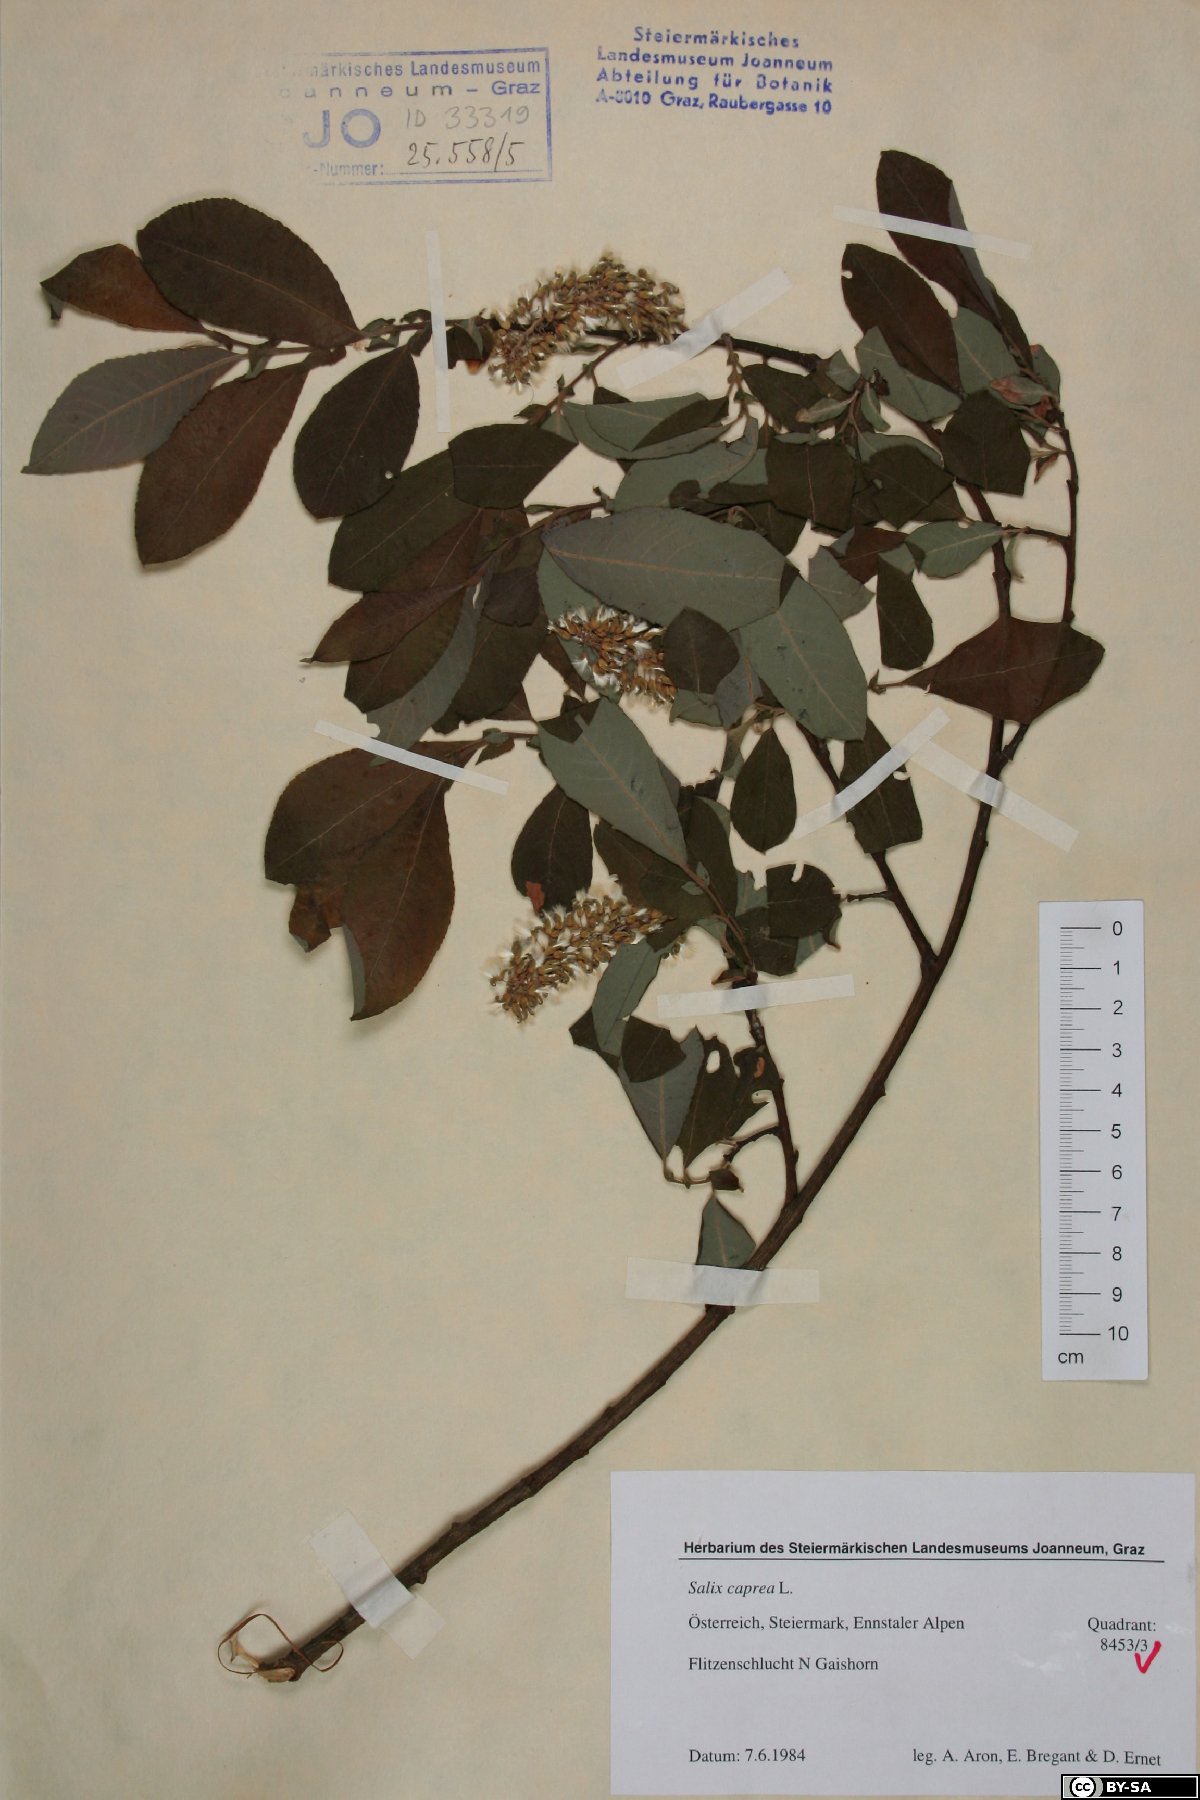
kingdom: Plantae
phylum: Tracheophyta
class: Magnoliopsida
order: Malpighiales
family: Salicaceae
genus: Salix
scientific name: Salix caprea
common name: Goat willow
